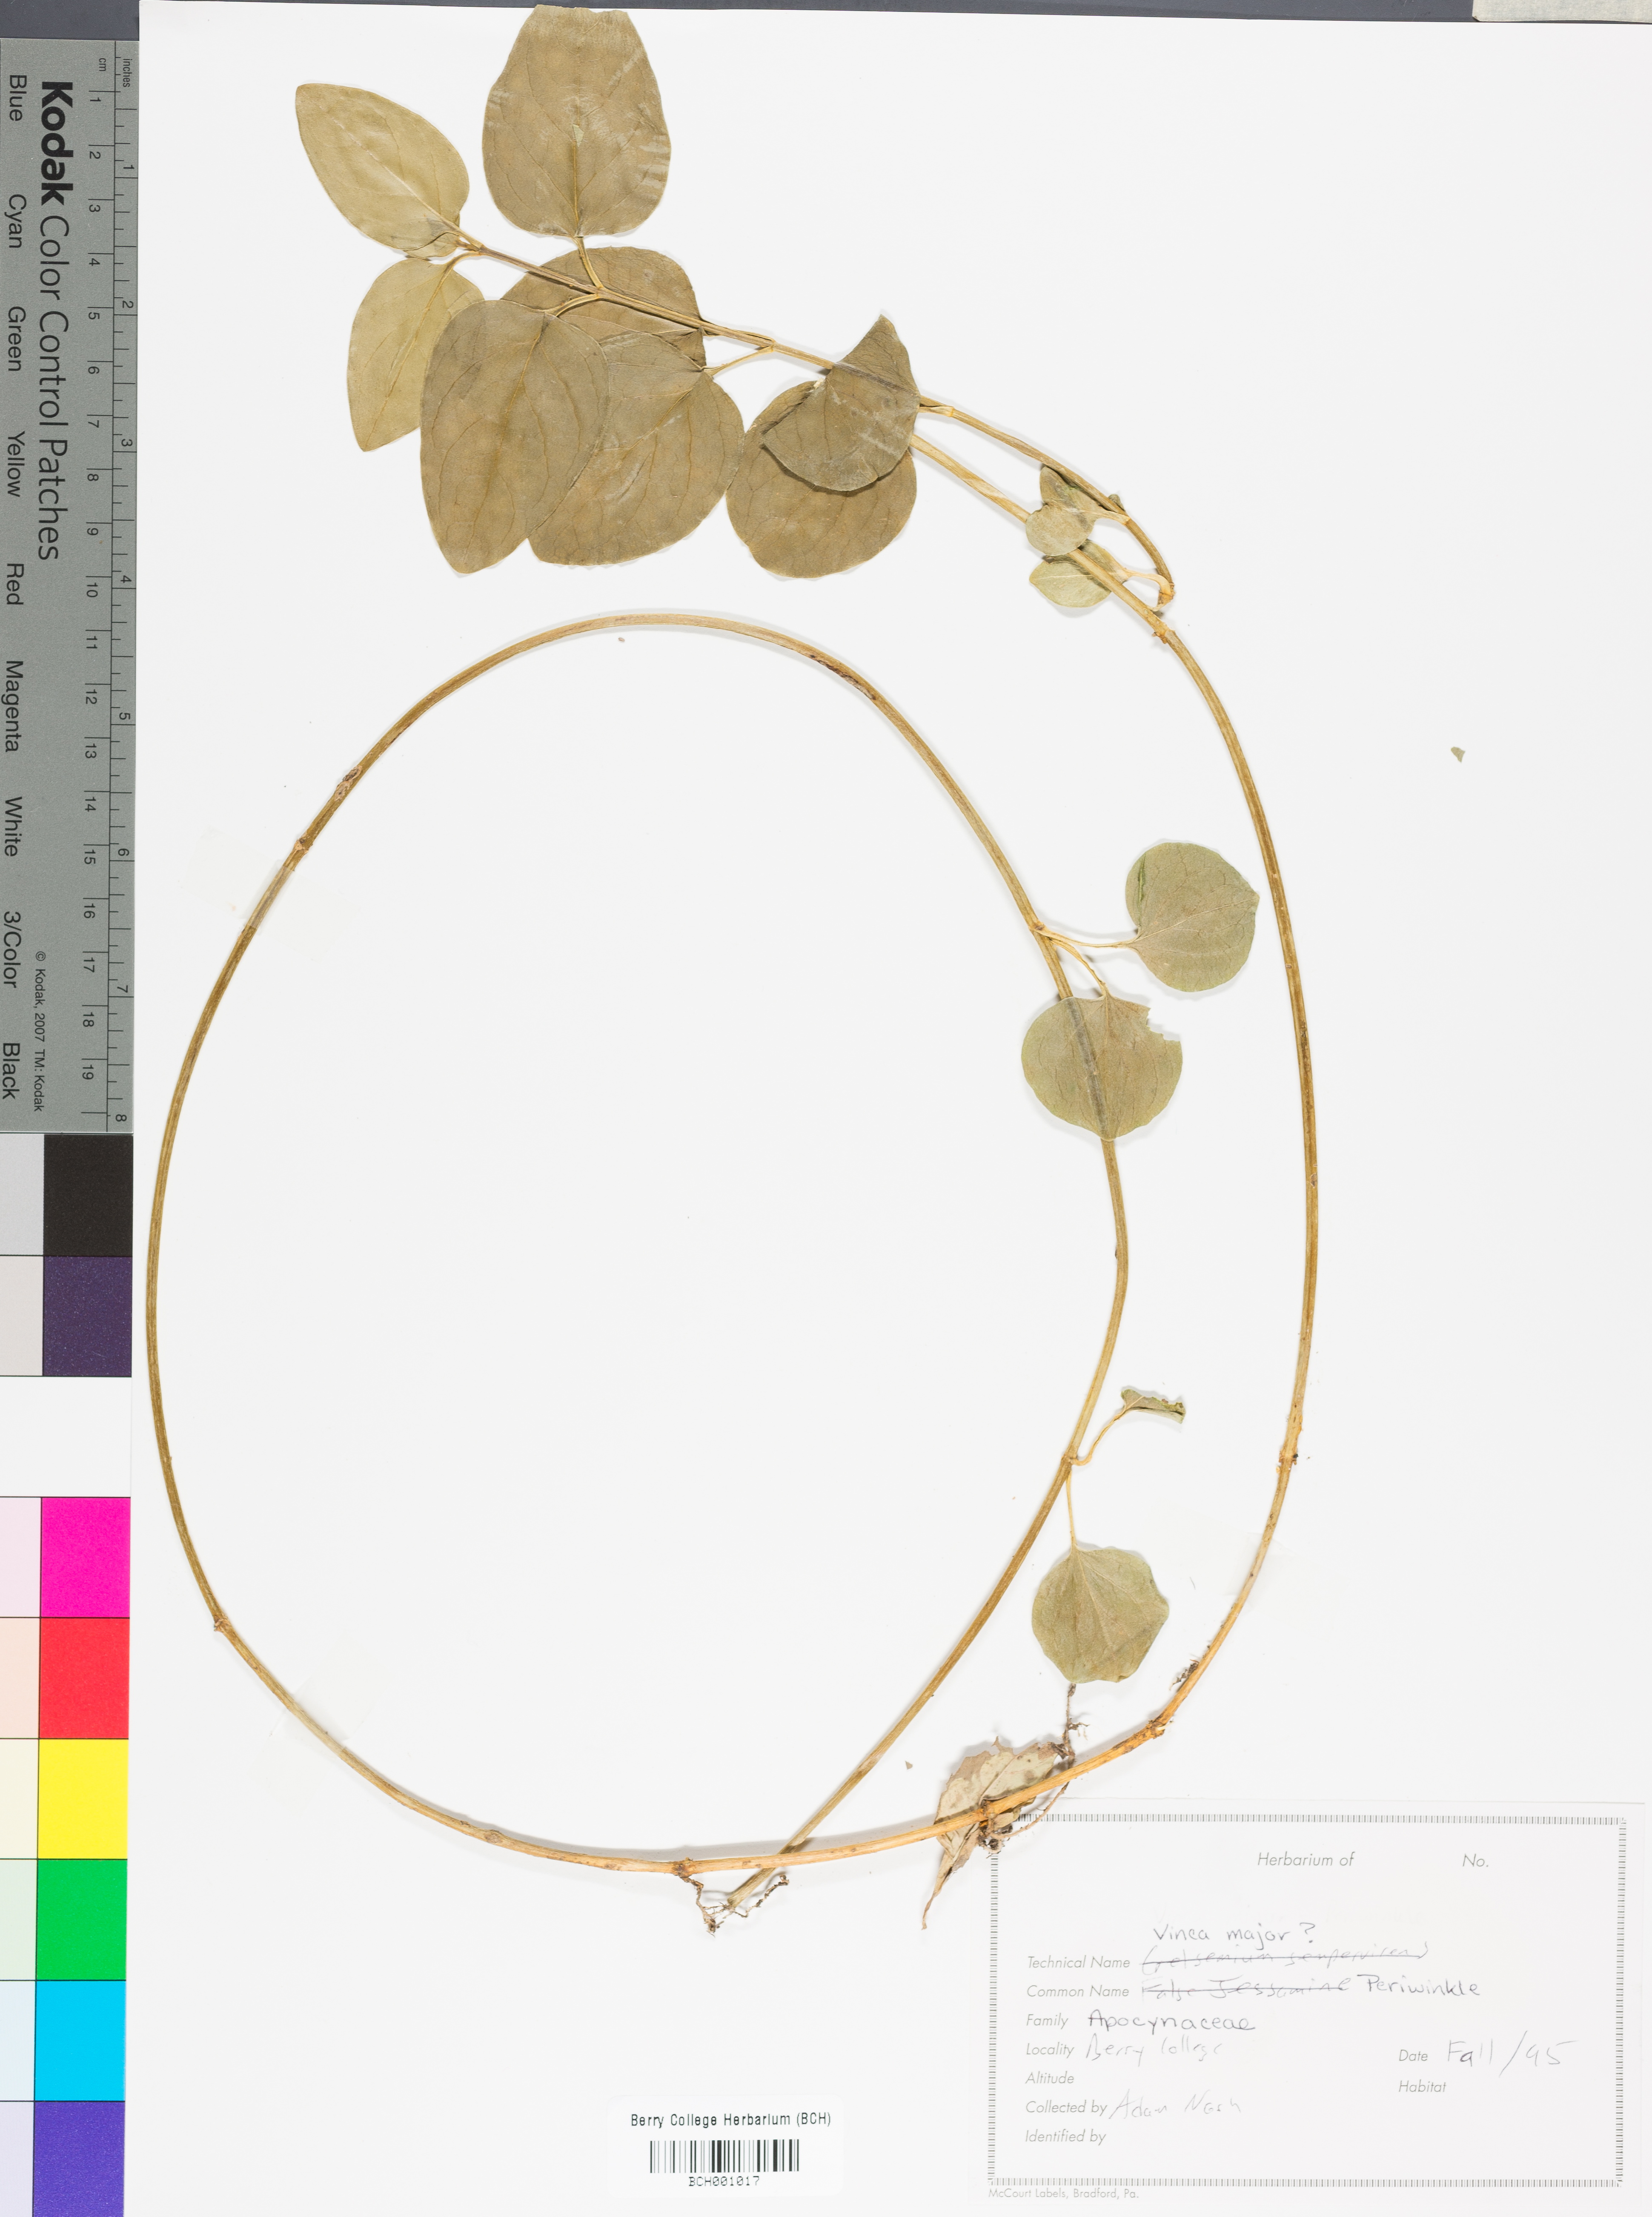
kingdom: Plantae
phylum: Tracheophyta
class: Magnoliopsida
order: Gentianales
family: Apocynaceae
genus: Vinca
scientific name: Vinca major
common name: Greater periwinkle
